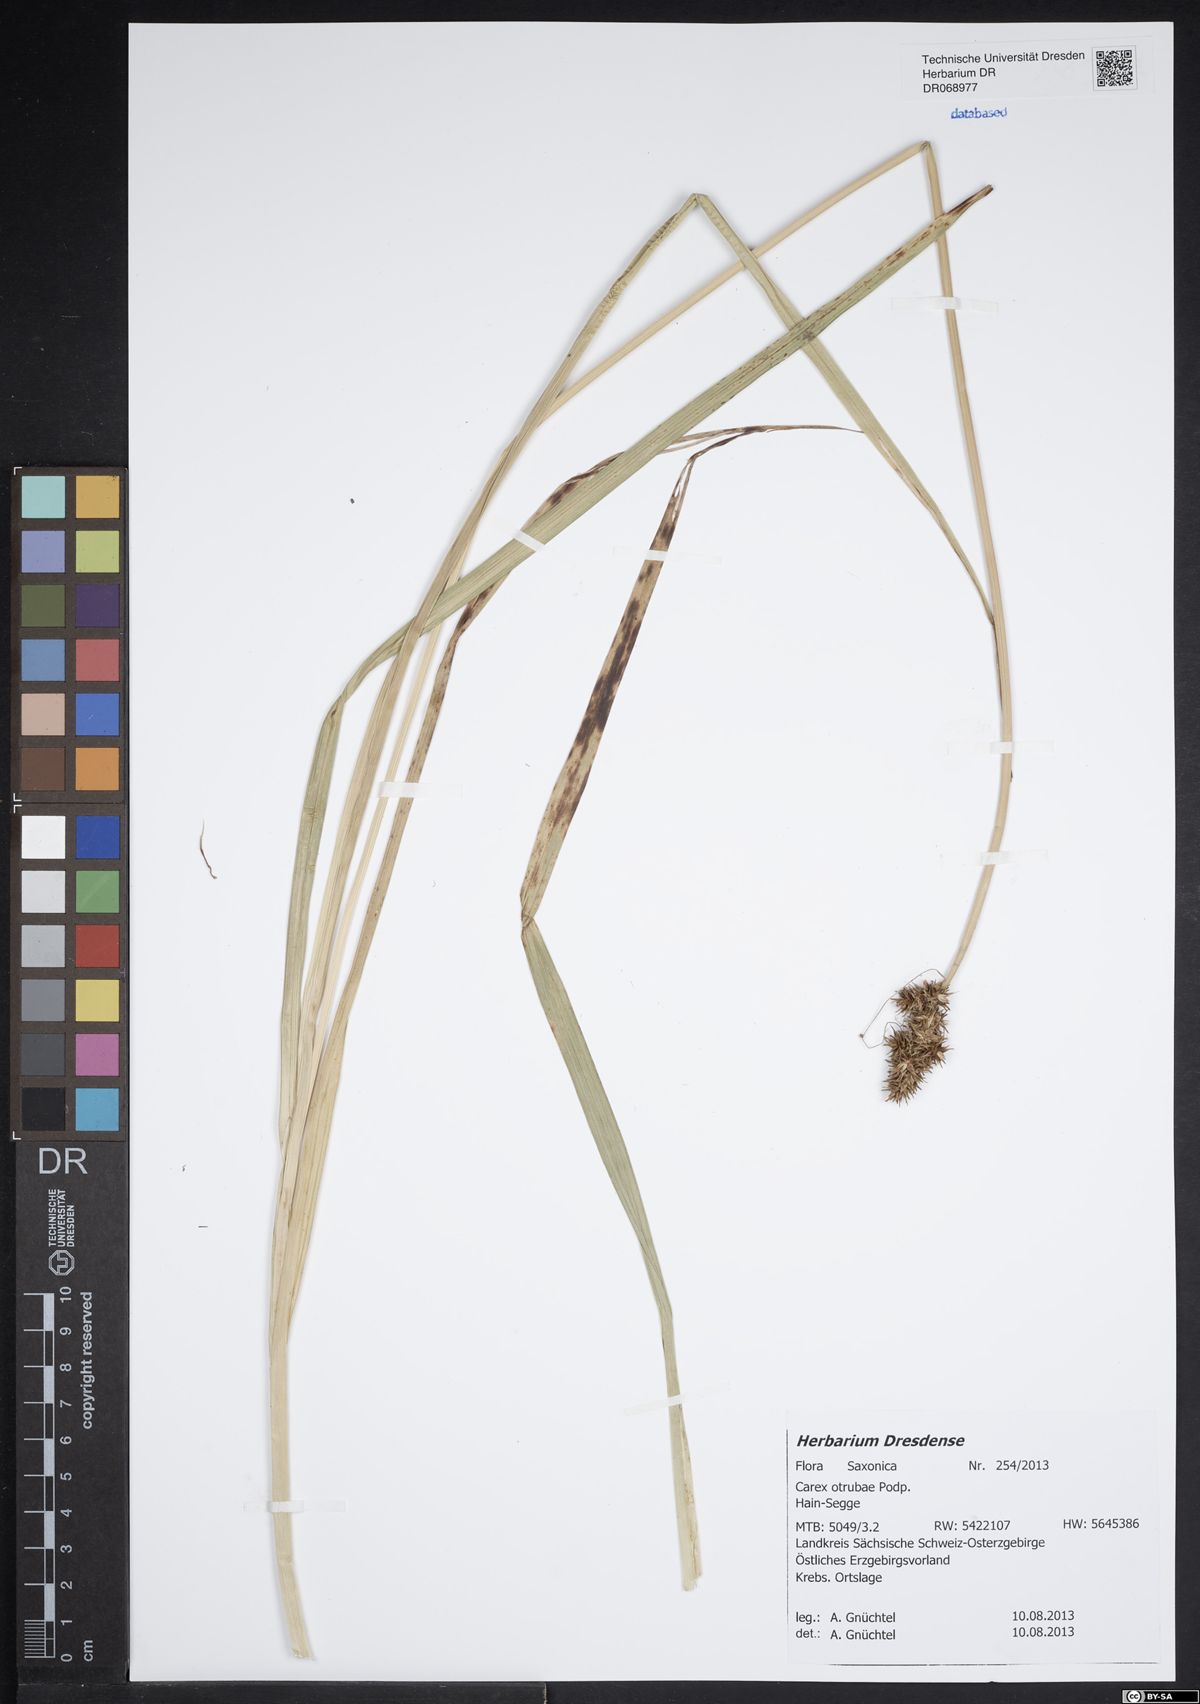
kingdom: Plantae
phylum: Tracheophyta
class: Liliopsida
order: Poales
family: Cyperaceae
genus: Carex
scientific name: Carex otrubae
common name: False fox-sedge
